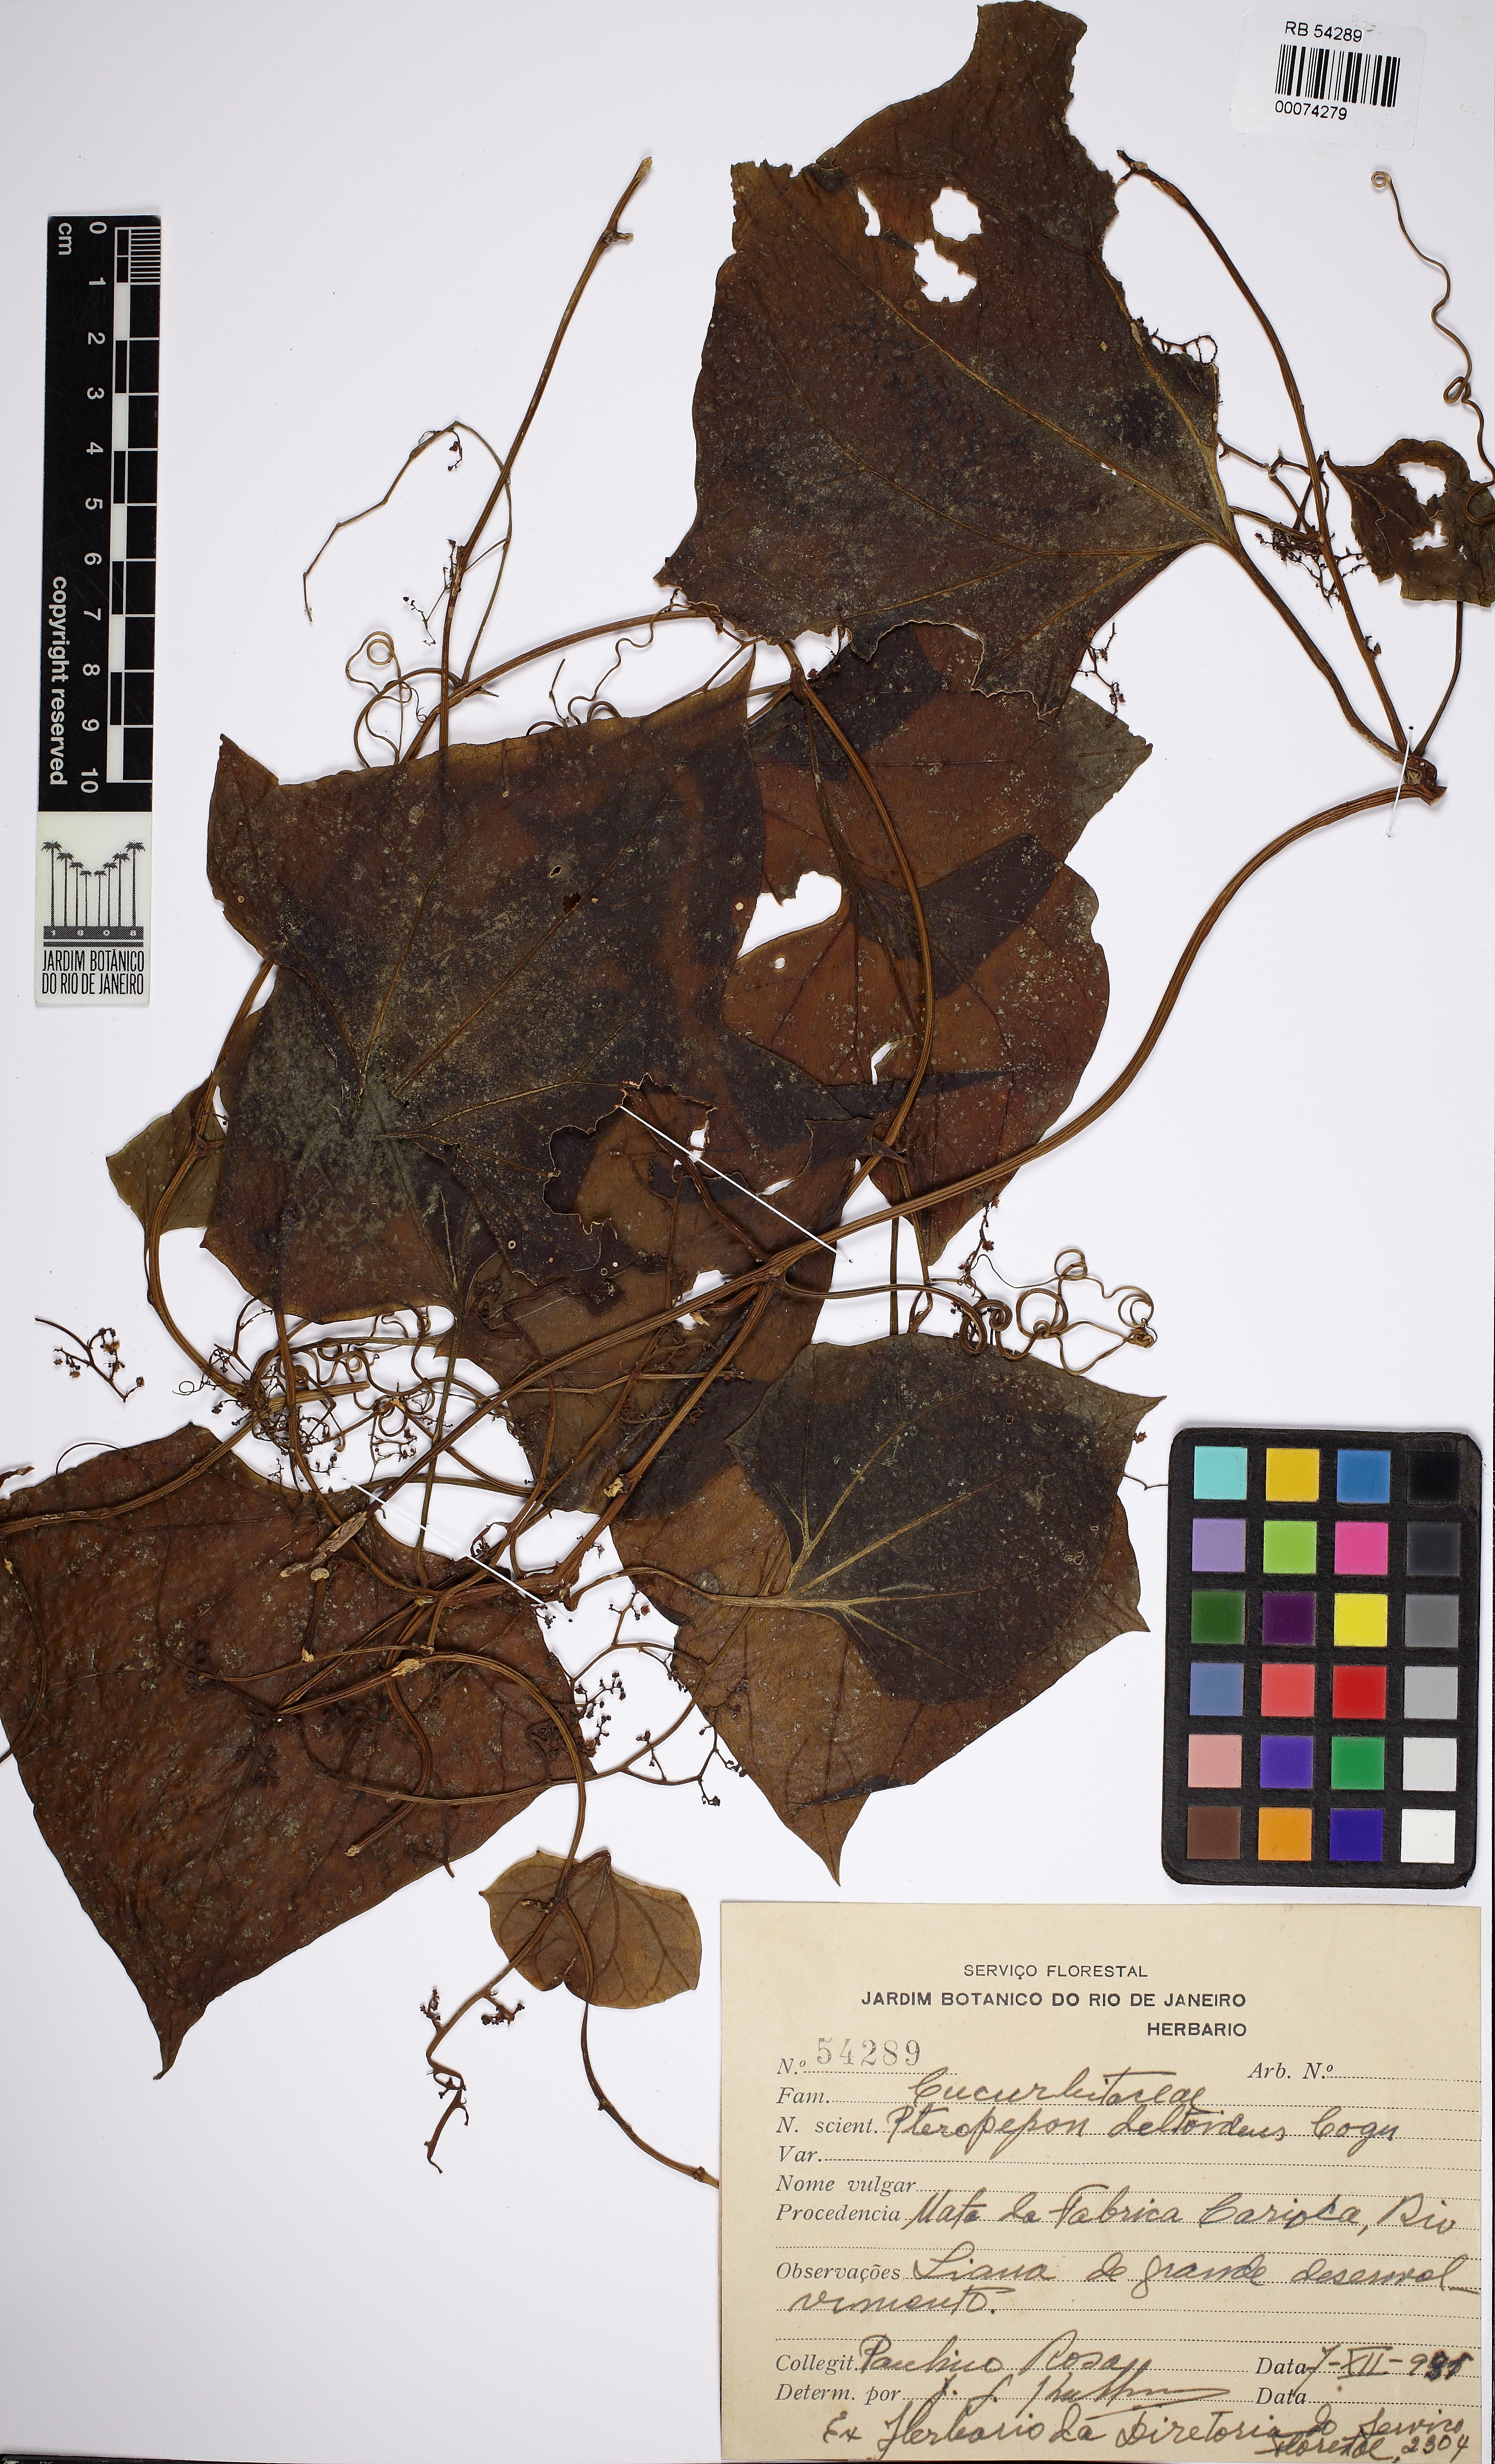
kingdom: Plantae
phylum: Tracheophyta
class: Magnoliopsida
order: Cucurbitales
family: Cucurbitaceae
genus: Pteropepon
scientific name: Pteropepon deltoideus
